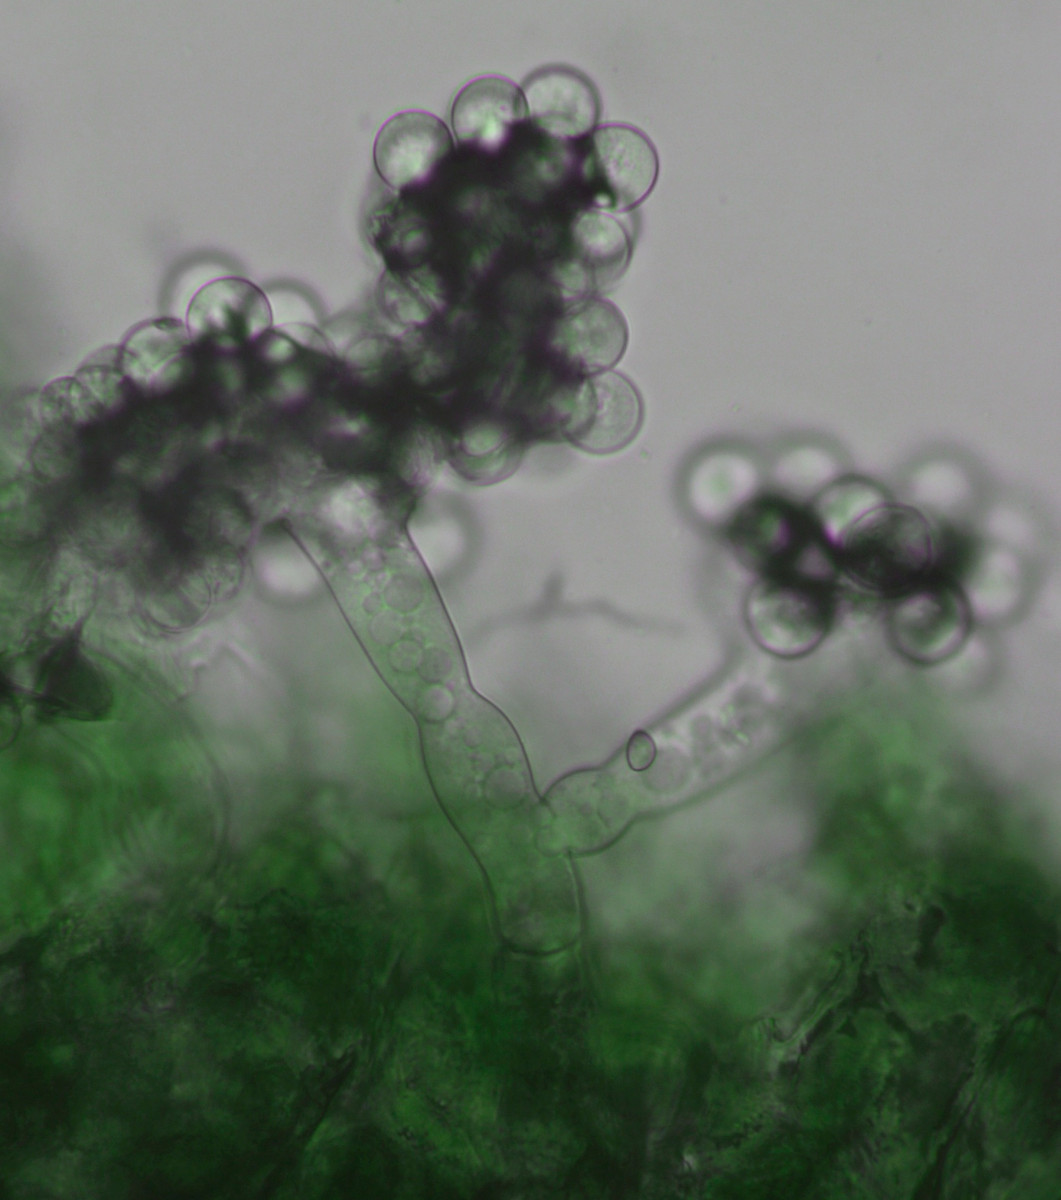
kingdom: Fungi
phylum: Ascomycota
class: Leotiomycetes
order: Helotiales
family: Sclerotiniaceae
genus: Botryotinia
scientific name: Botryotinia globosa
